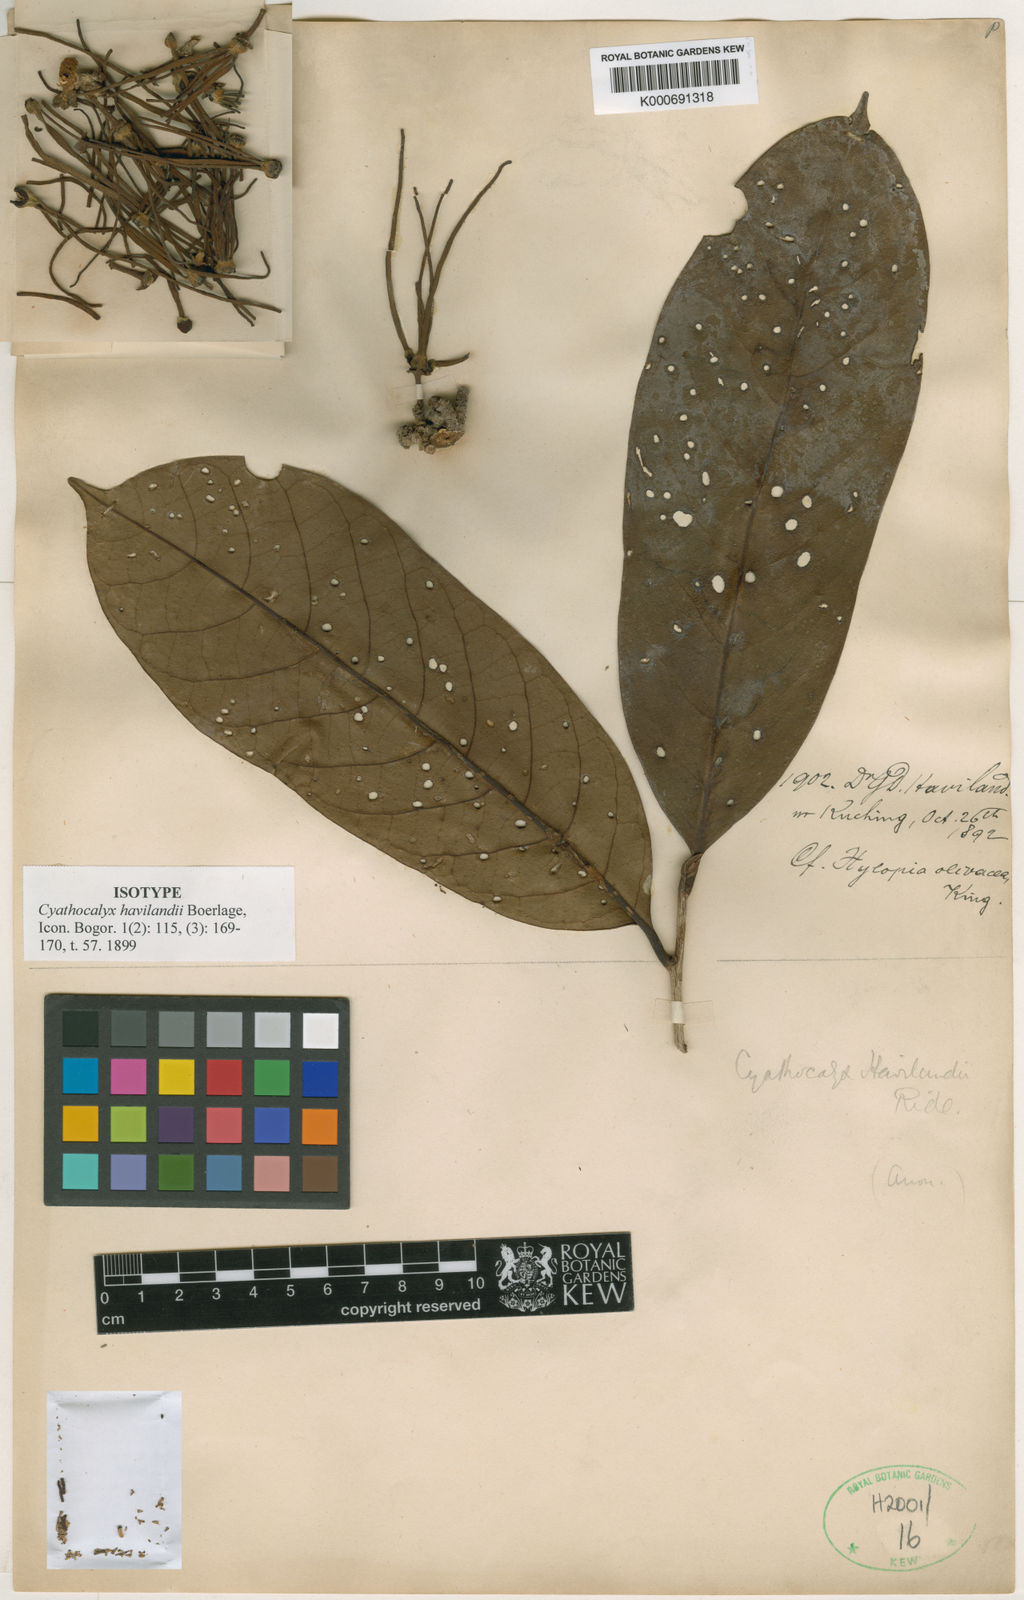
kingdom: Plantae
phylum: Tracheophyta
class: Magnoliopsida
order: Magnoliales
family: Annonaceae
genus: Drepananthus
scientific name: Drepananthus havilandii
